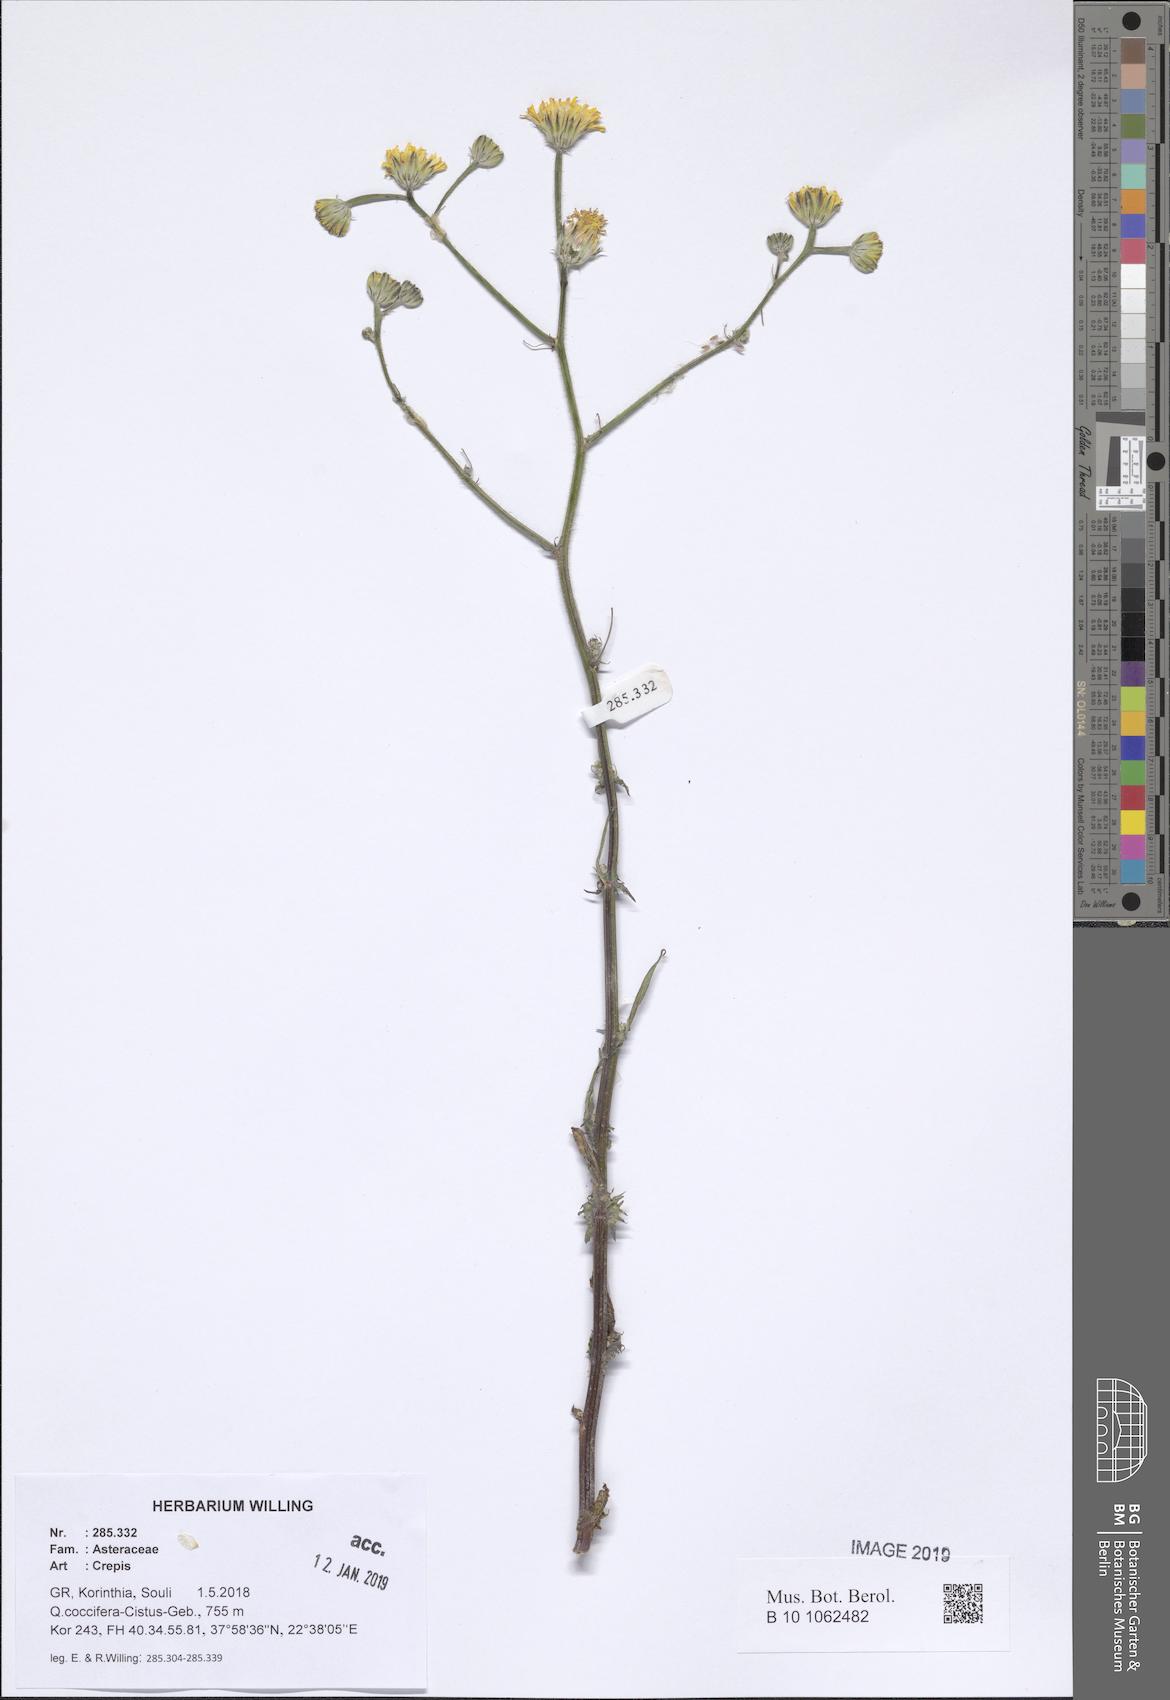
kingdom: Plantae
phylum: Tracheophyta
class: Magnoliopsida
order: Asterales
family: Asteraceae
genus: Crepis
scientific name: Crepis
